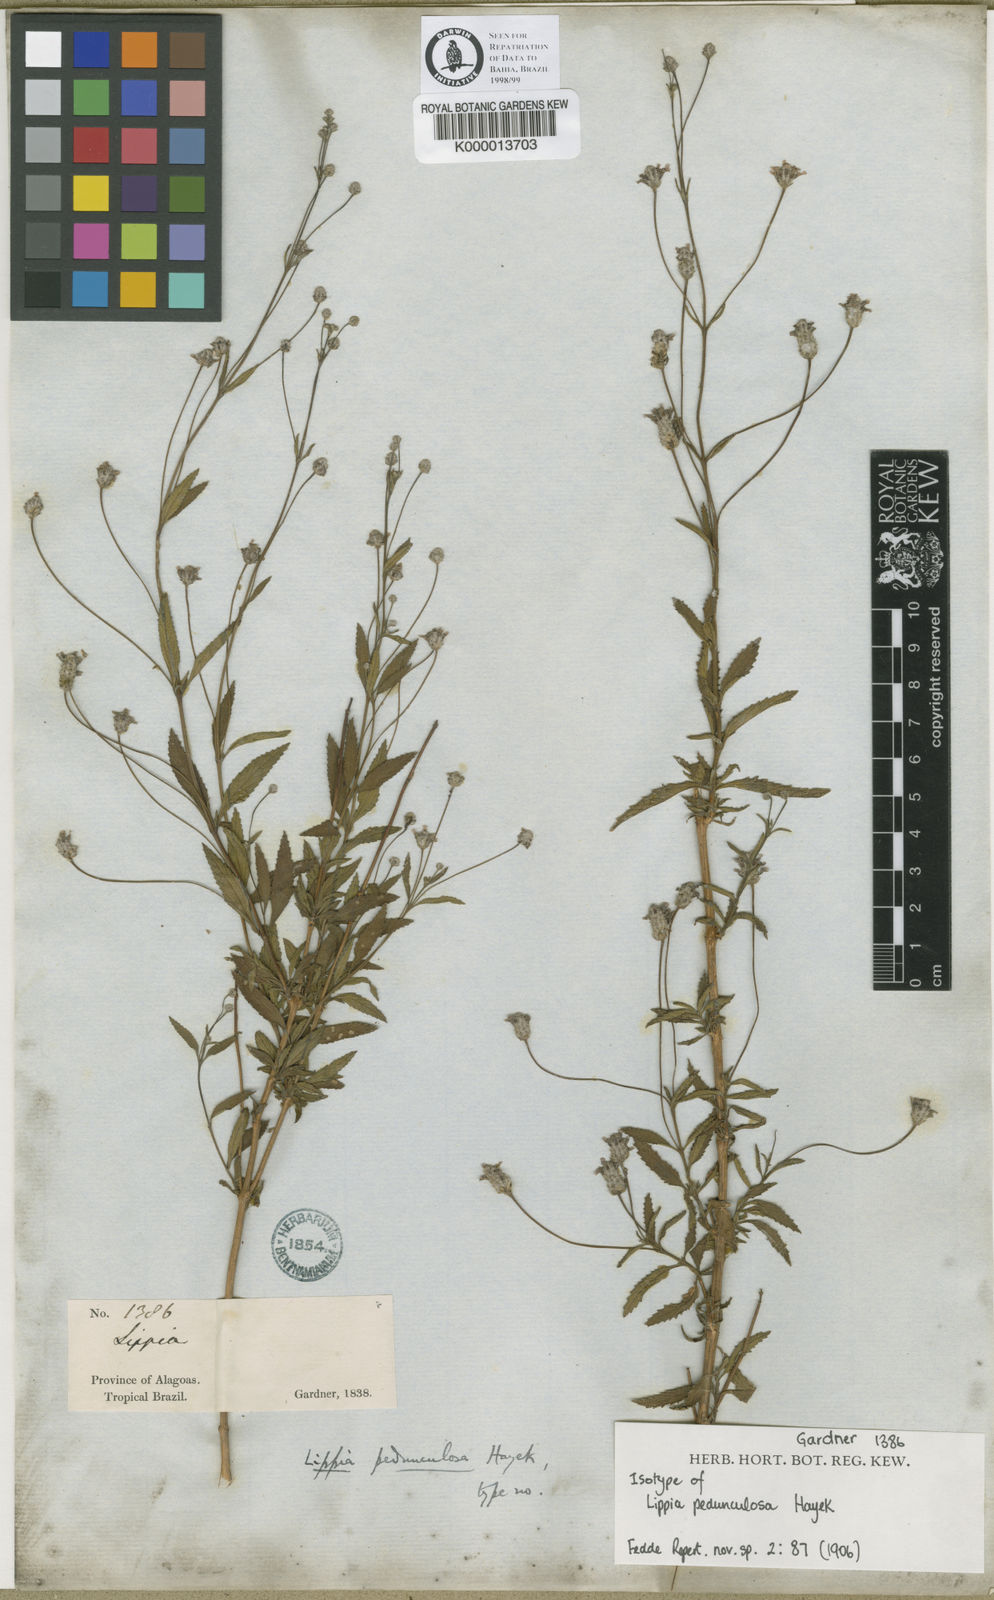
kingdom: Plantae
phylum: Tracheophyta
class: Magnoliopsida
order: Lamiales
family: Verbenaceae
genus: Lippia
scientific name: Lippia pedunculosa
